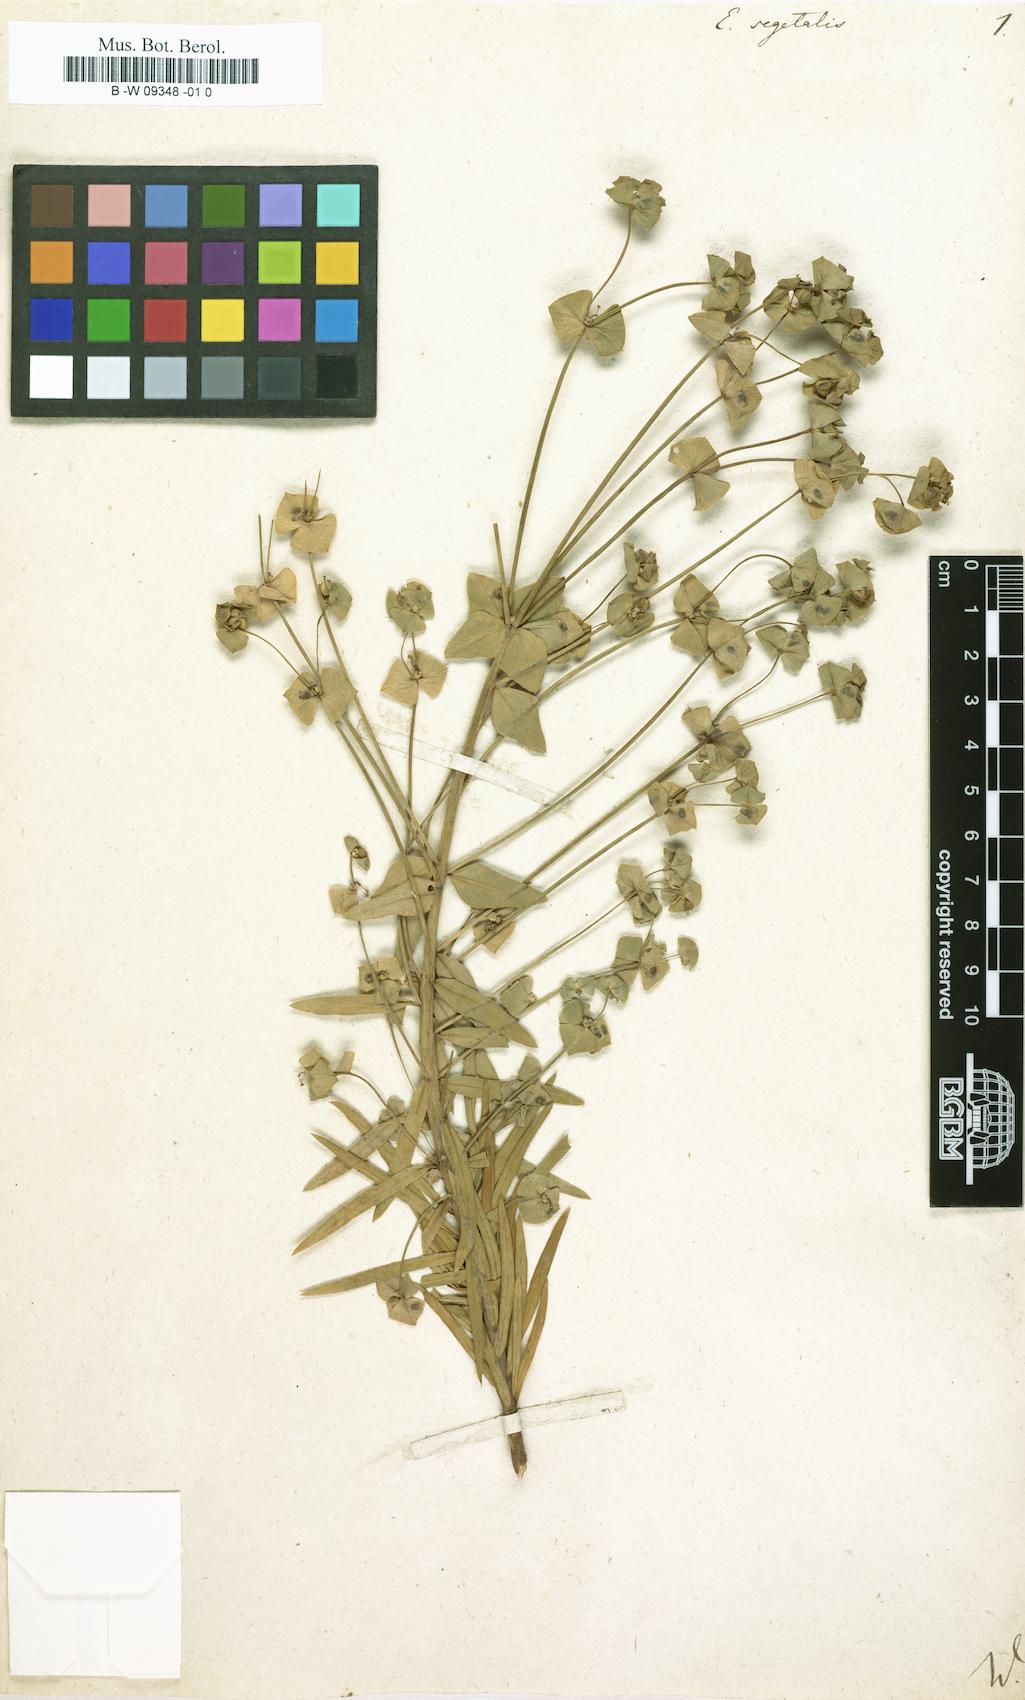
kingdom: Plantae
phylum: Tracheophyta
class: Magnoliopsida
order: Malpighiales
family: Euphorbiaceae
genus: Euphorbia
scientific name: Euphorbia segetalis
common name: Corn spurge
